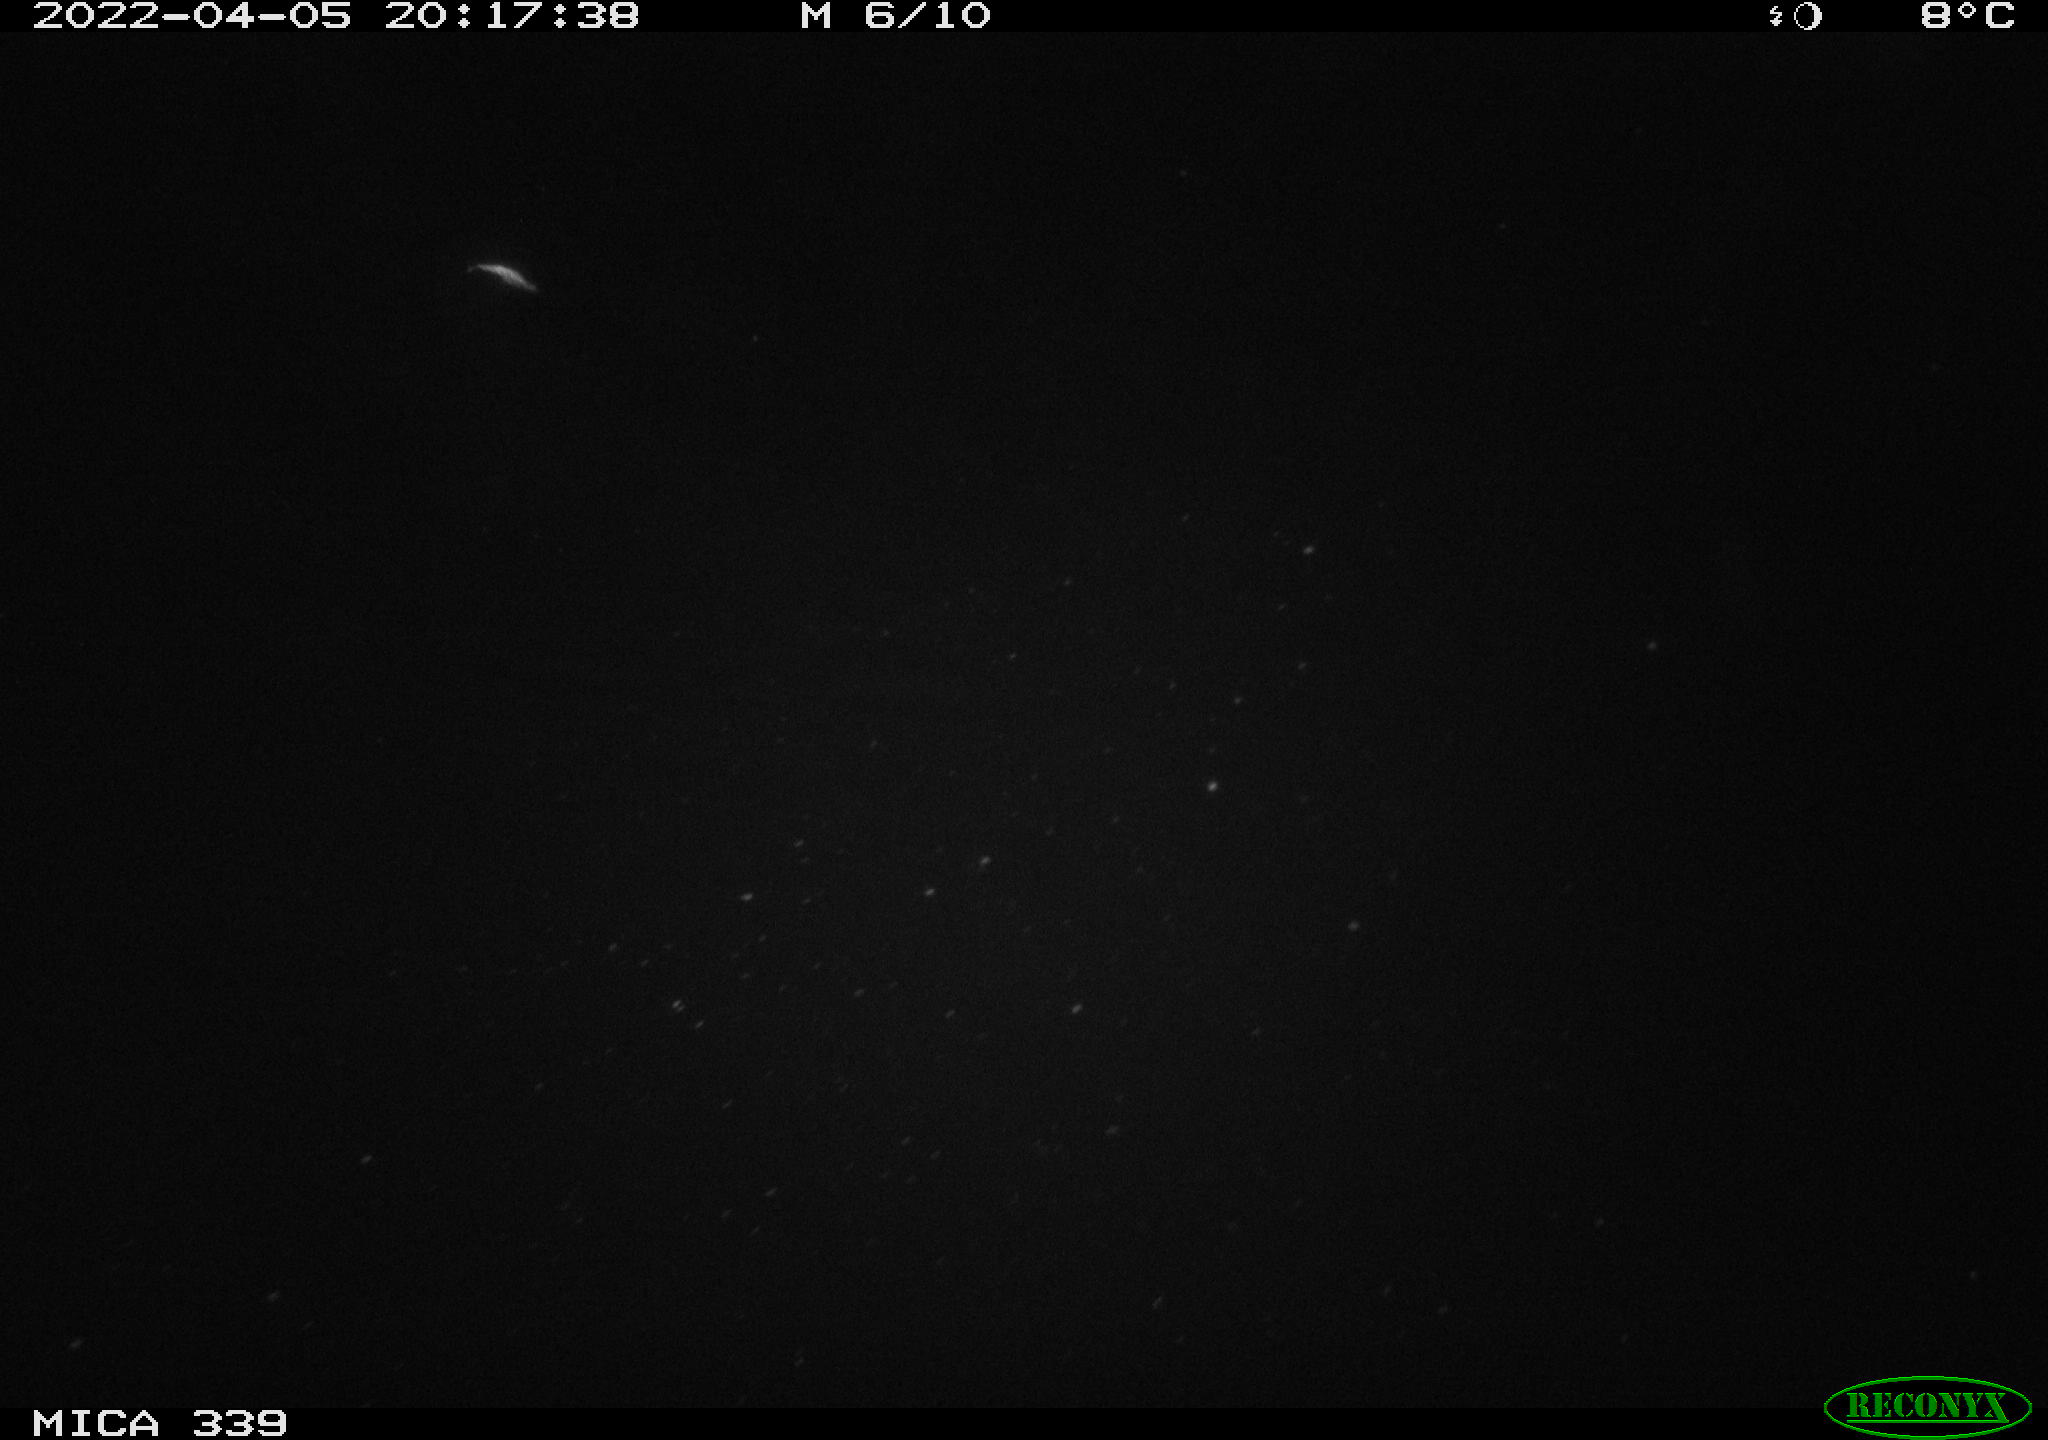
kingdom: Animalia
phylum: Chordata
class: Mammalia
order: Rodentia
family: Muridae
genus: Rattus
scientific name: Rattus norvegicus
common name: Brown rat
